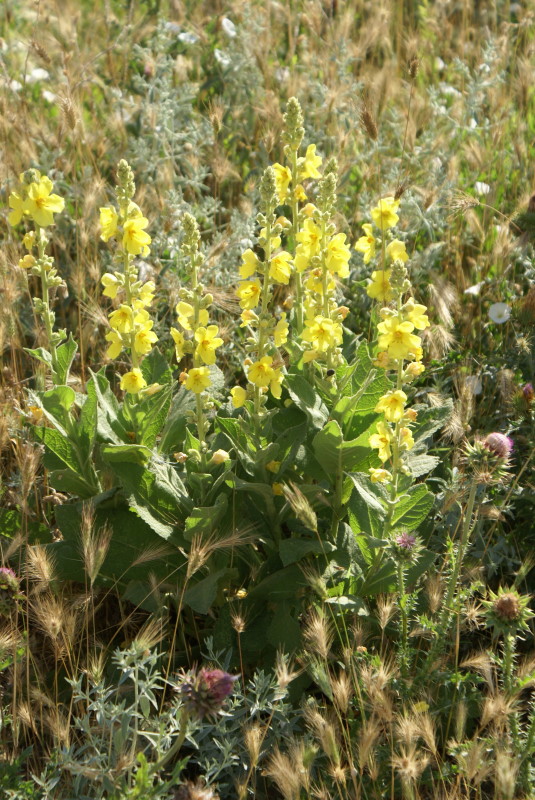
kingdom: Plantae
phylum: Tracheophyta
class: Magnoliopsida
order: Lamiales
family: Scrophulariaceae
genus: Verbascum
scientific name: Verbascum
